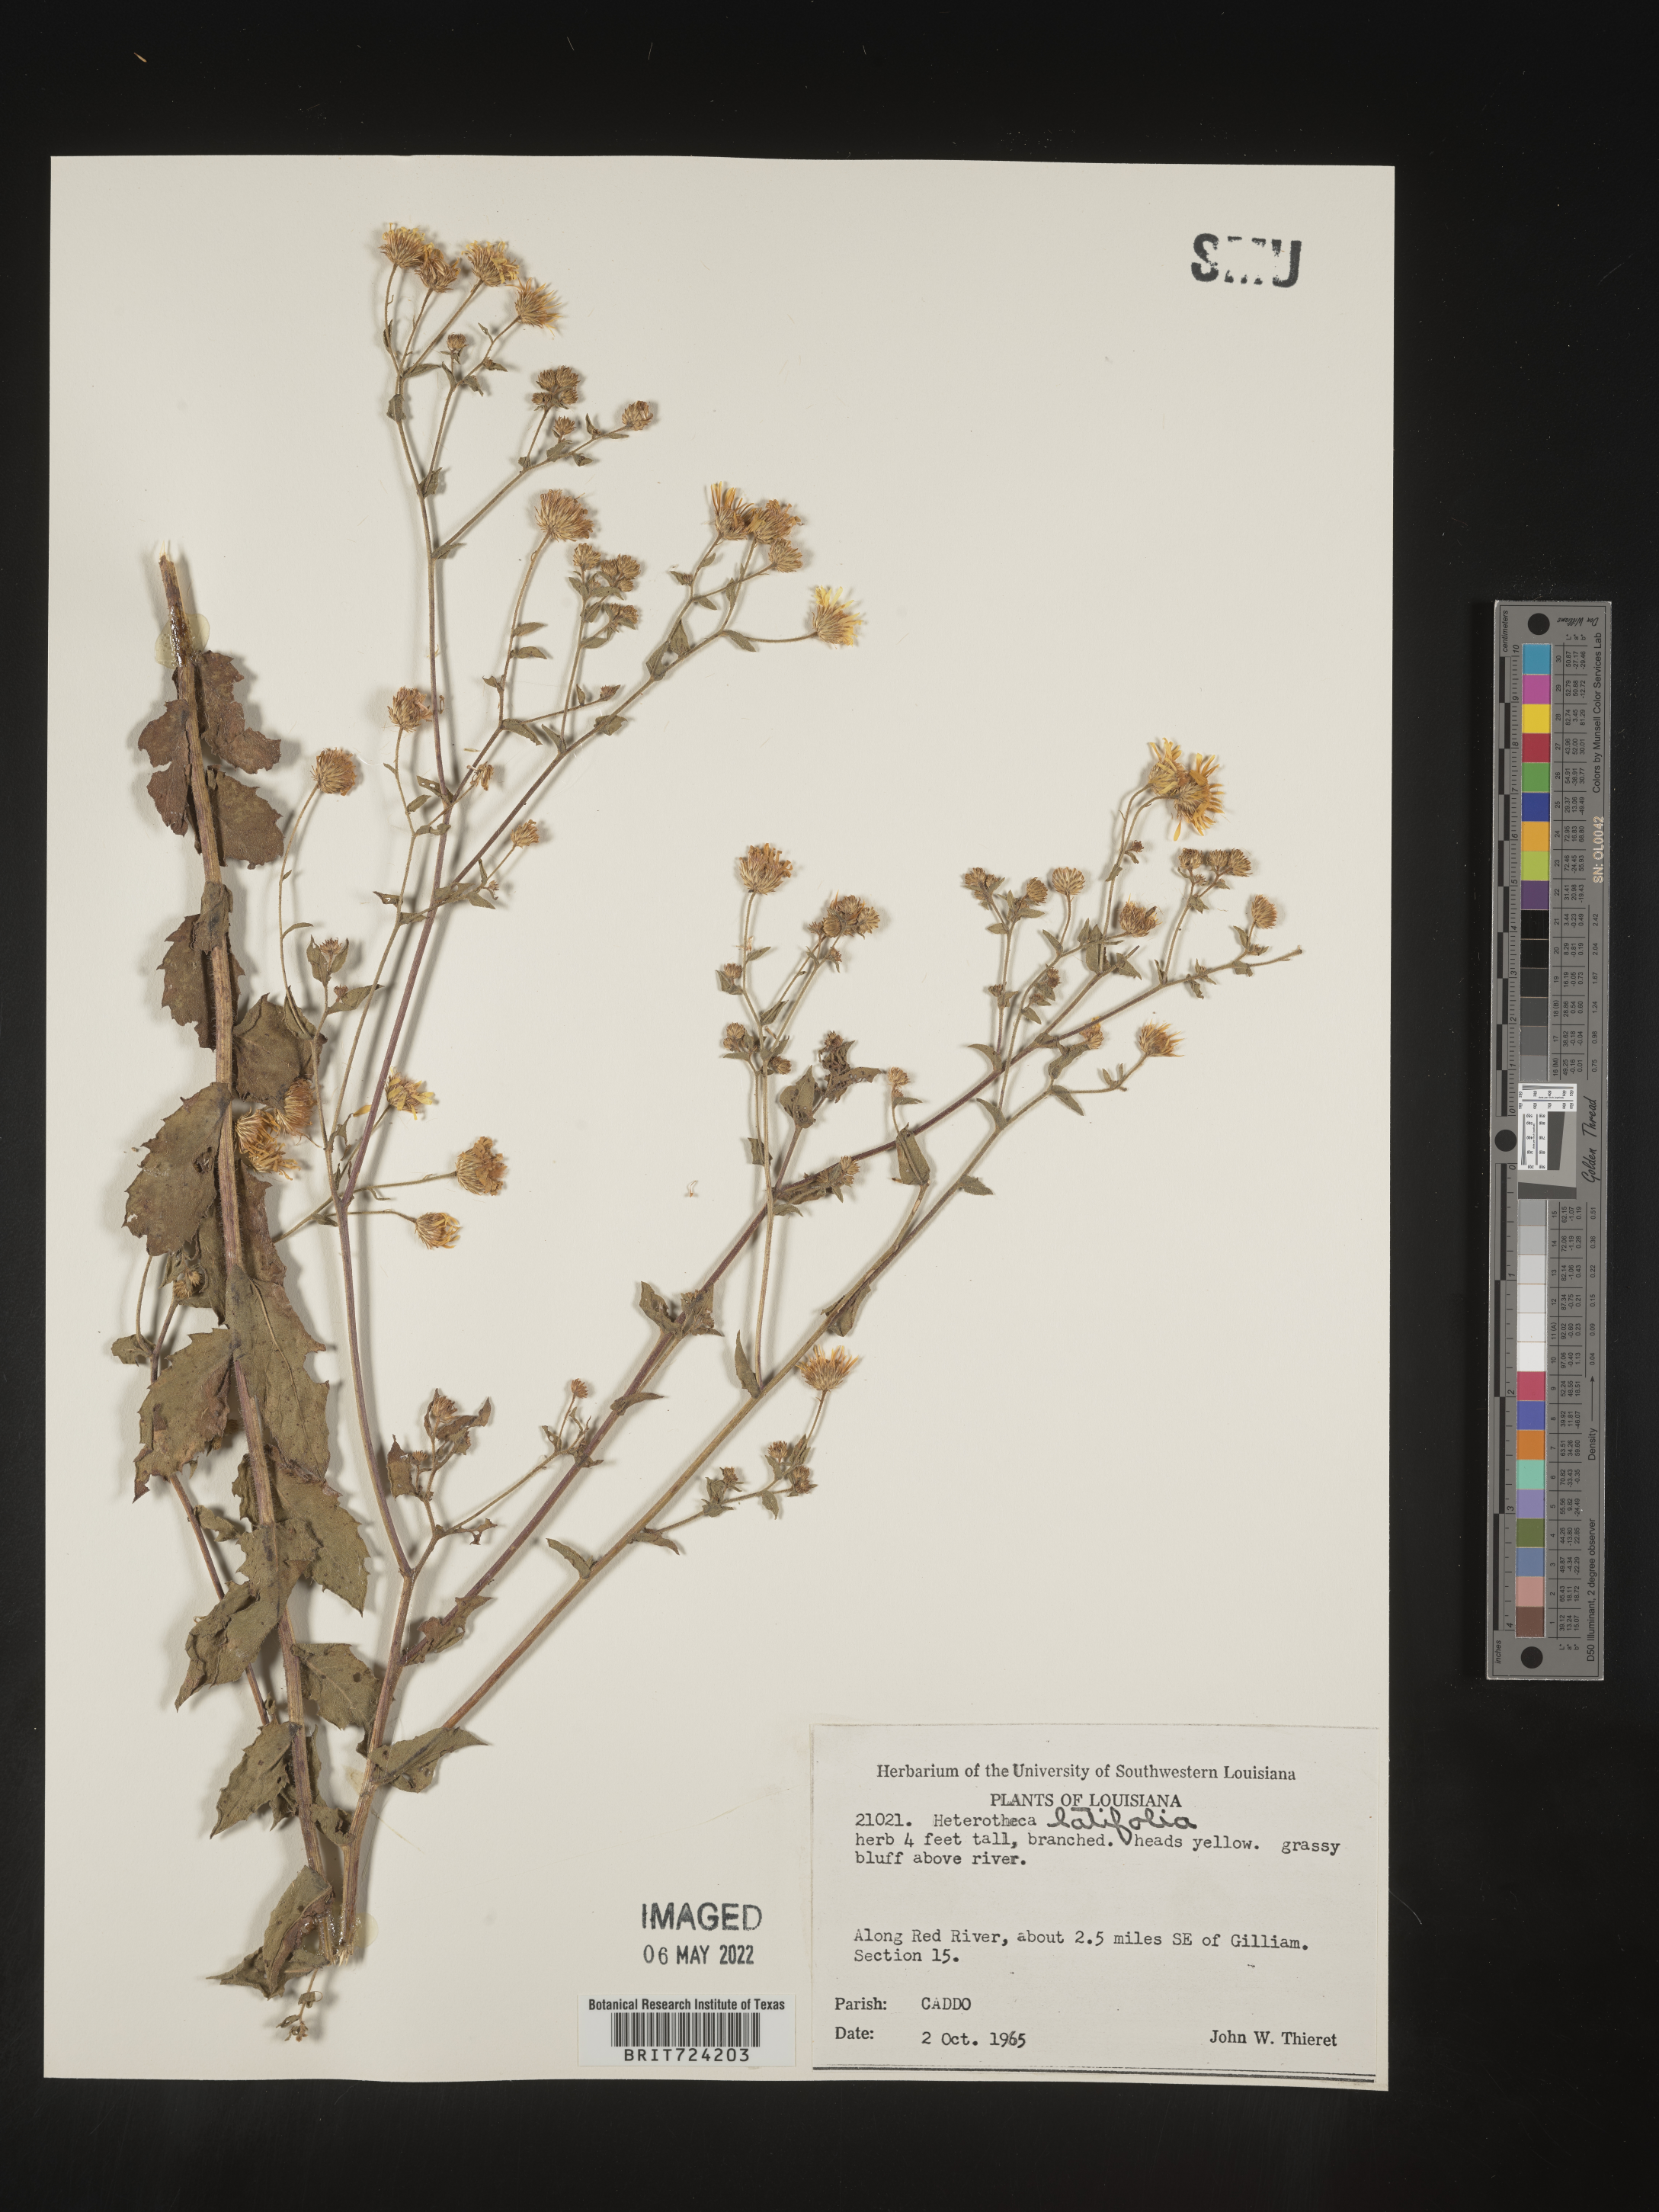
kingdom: Plantae
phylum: Tracheophyta
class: Magnoliopsida
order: Asterales
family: Asteraceae
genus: Heterotheca
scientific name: Heterotheca subaxillaris
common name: Camphorweed
